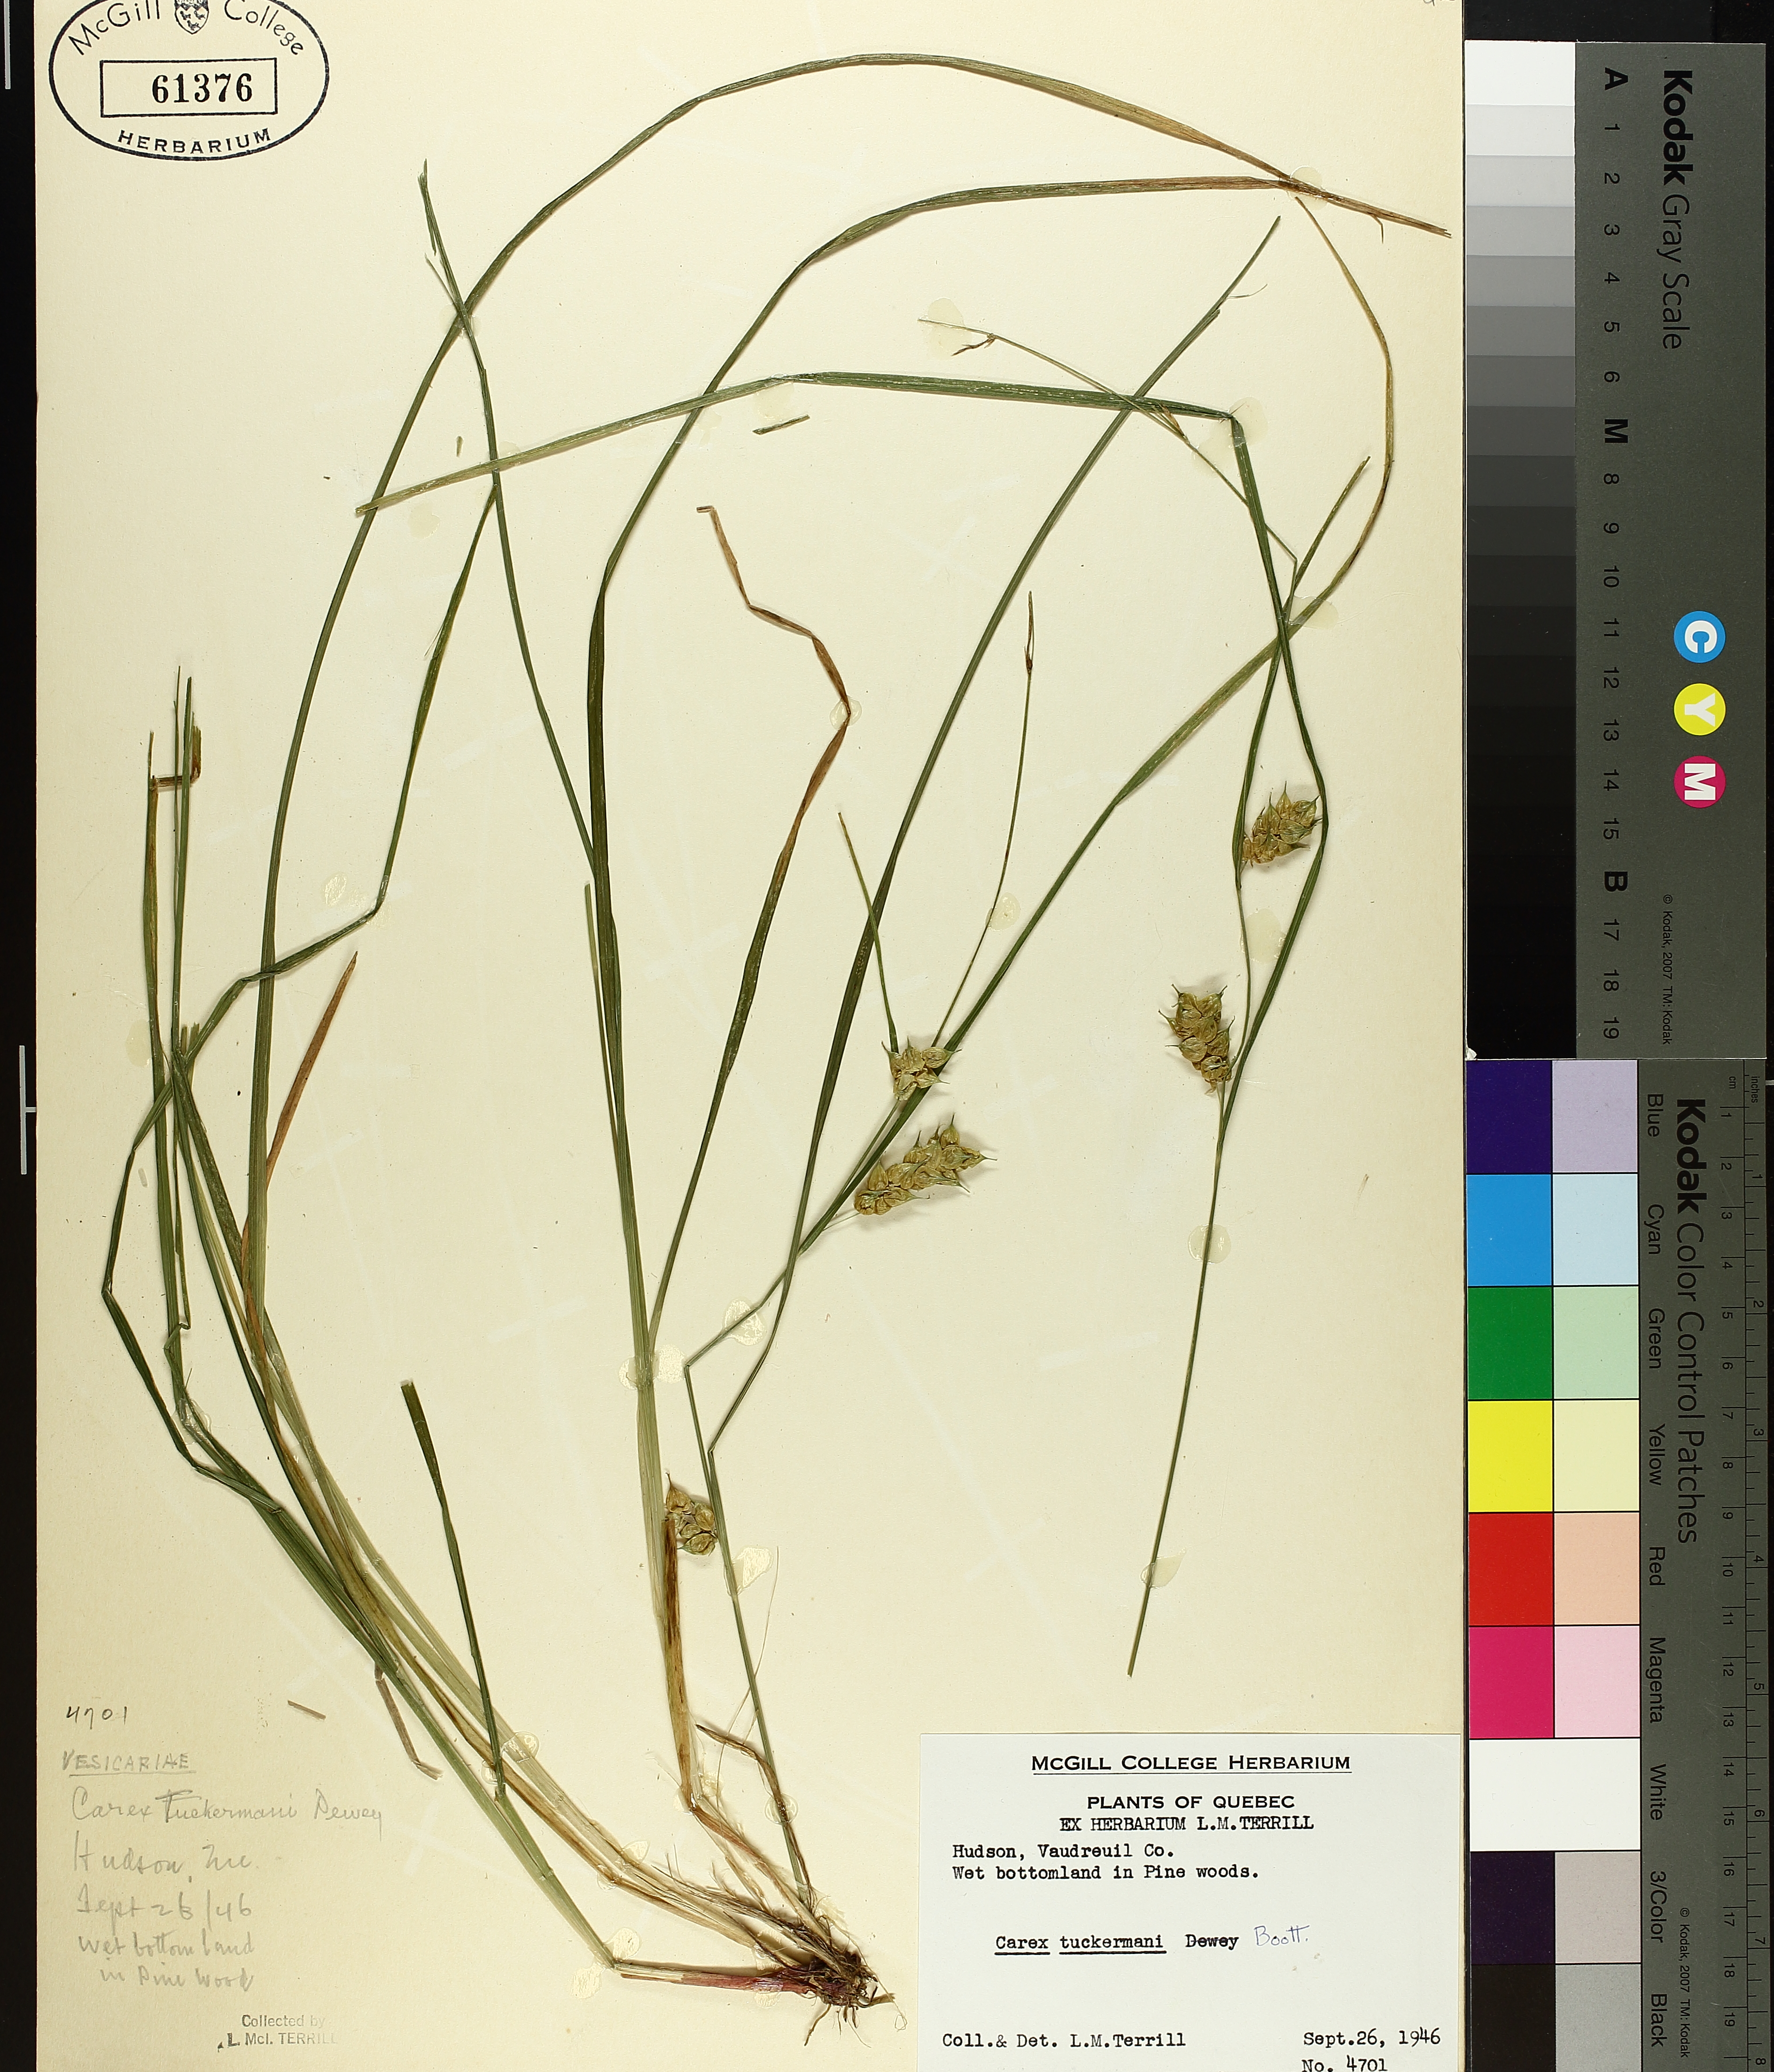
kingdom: Plantae
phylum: Tracheophyta
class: Liliopsida
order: Poales
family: Cyperaceae
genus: Carex
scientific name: Carex tuckermanii
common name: Tuckerman's sedge
